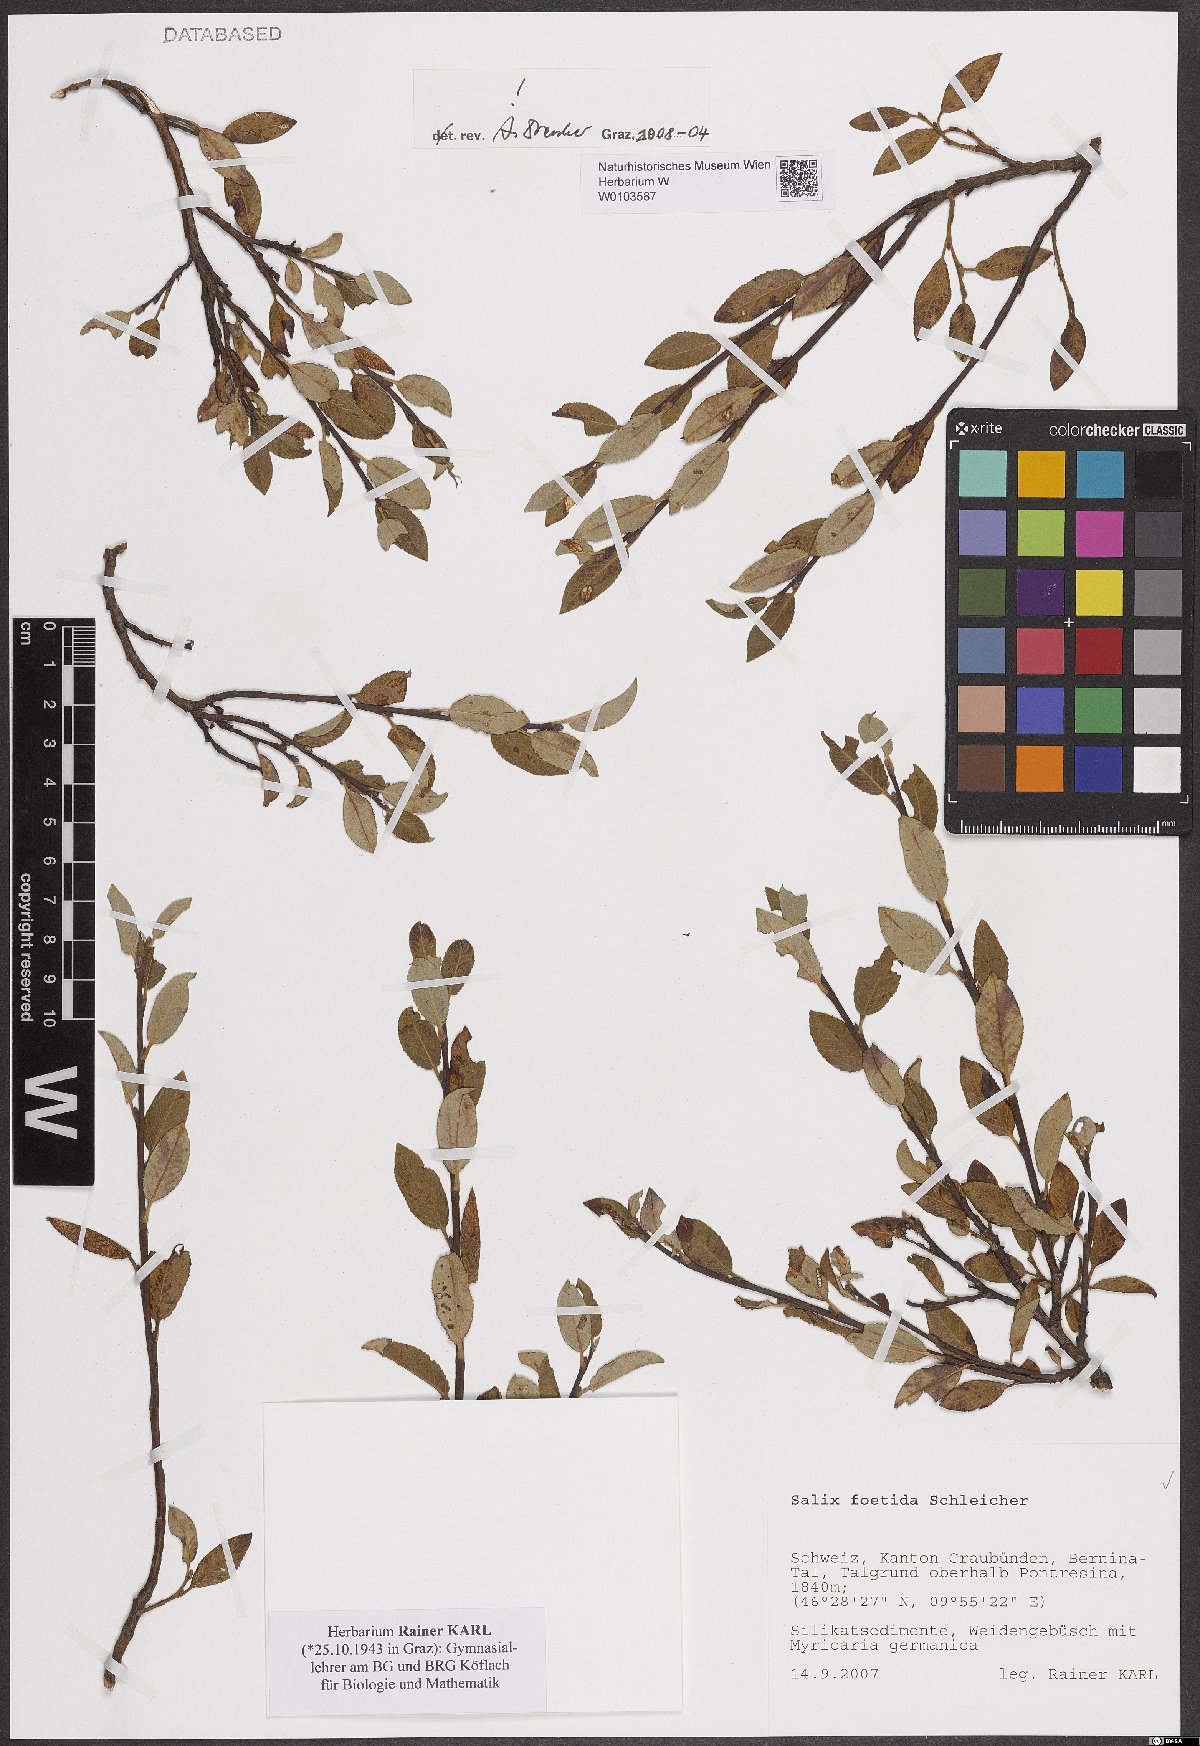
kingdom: Plantae
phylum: Tracheophyta
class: Magnoliopsida
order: Malpighiales
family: Salicaceae
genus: Salix
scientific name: Salix foetida
